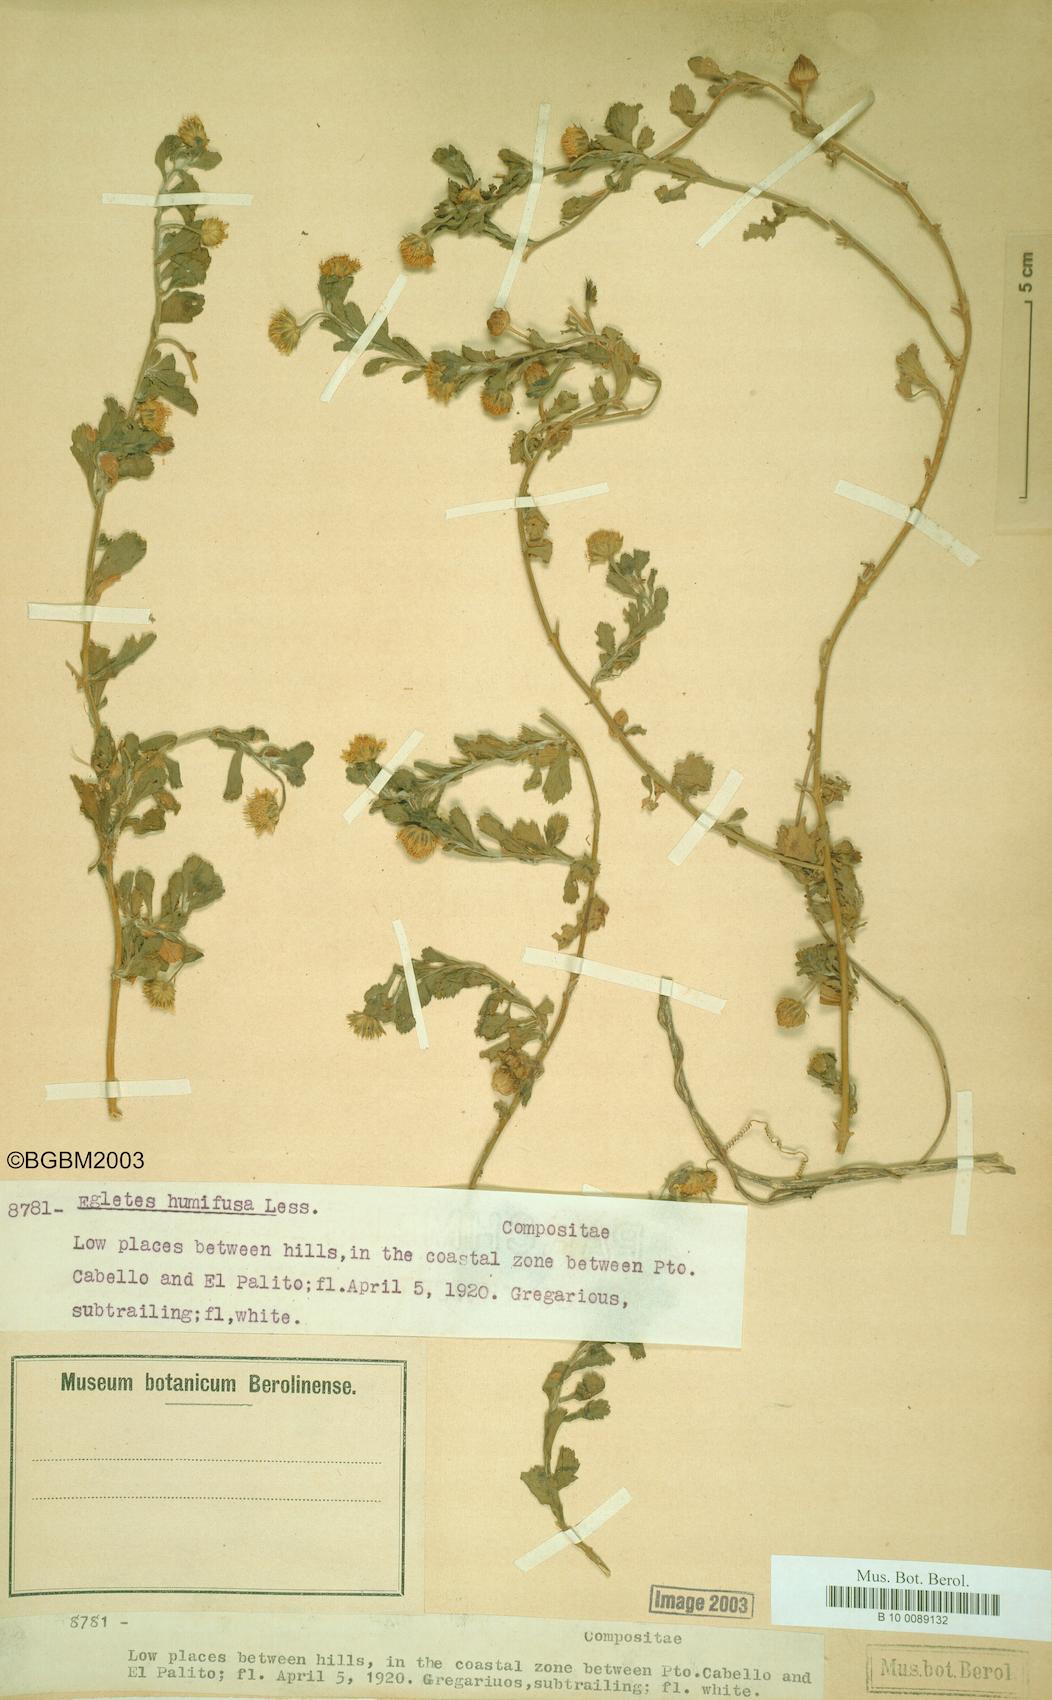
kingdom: Plantae
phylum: Tracheophyta
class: Magnoliopsida
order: Asterales
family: Asteraceae
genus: Egletes
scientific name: Egletes humifusa
